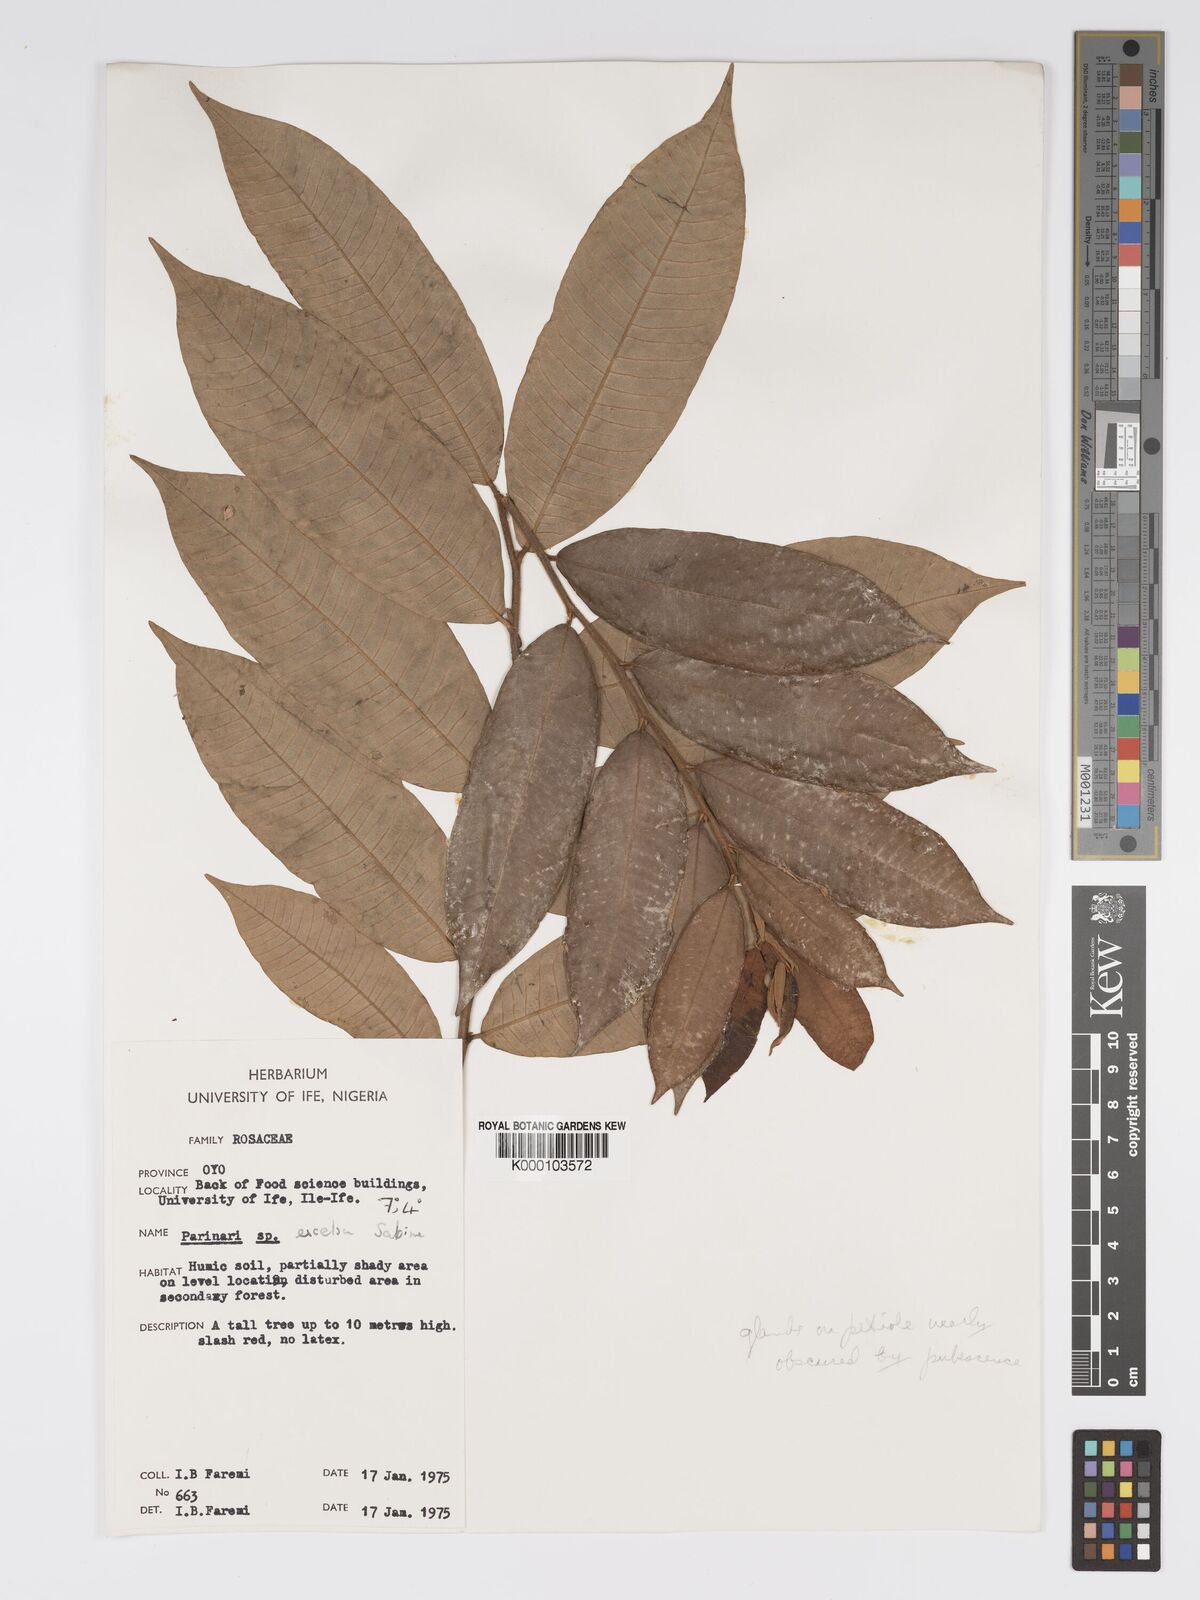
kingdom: Plantae
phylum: Tracheophyta
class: Magnoliopsida
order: Malpighiales
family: Chrysobalanaceae
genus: Parinari
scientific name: Parinari excelsa
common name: Guinea-plum
